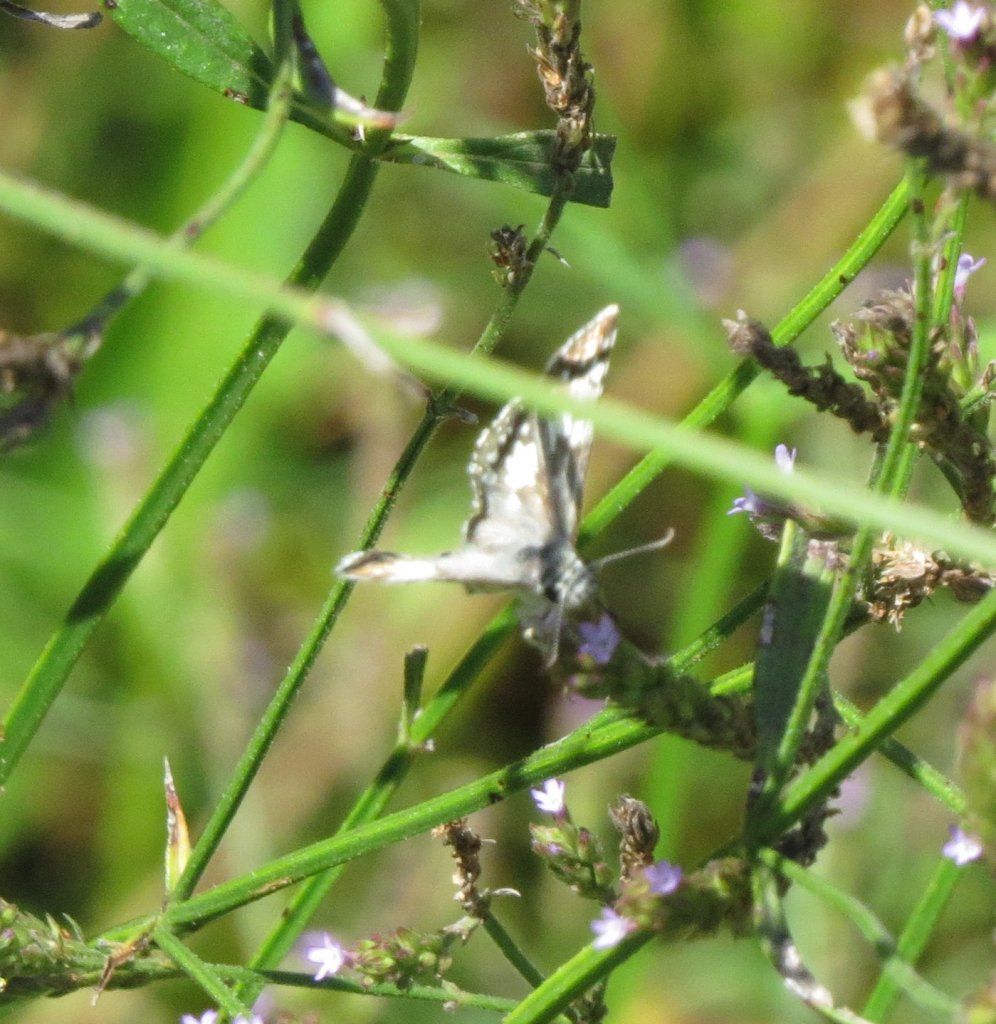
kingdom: Animalia
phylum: Arthropoda
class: Insecta
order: Lepidoptera
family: Hesperiidae
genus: Pyrgus
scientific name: Pyrgus communis
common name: White Checkered-Skipper
